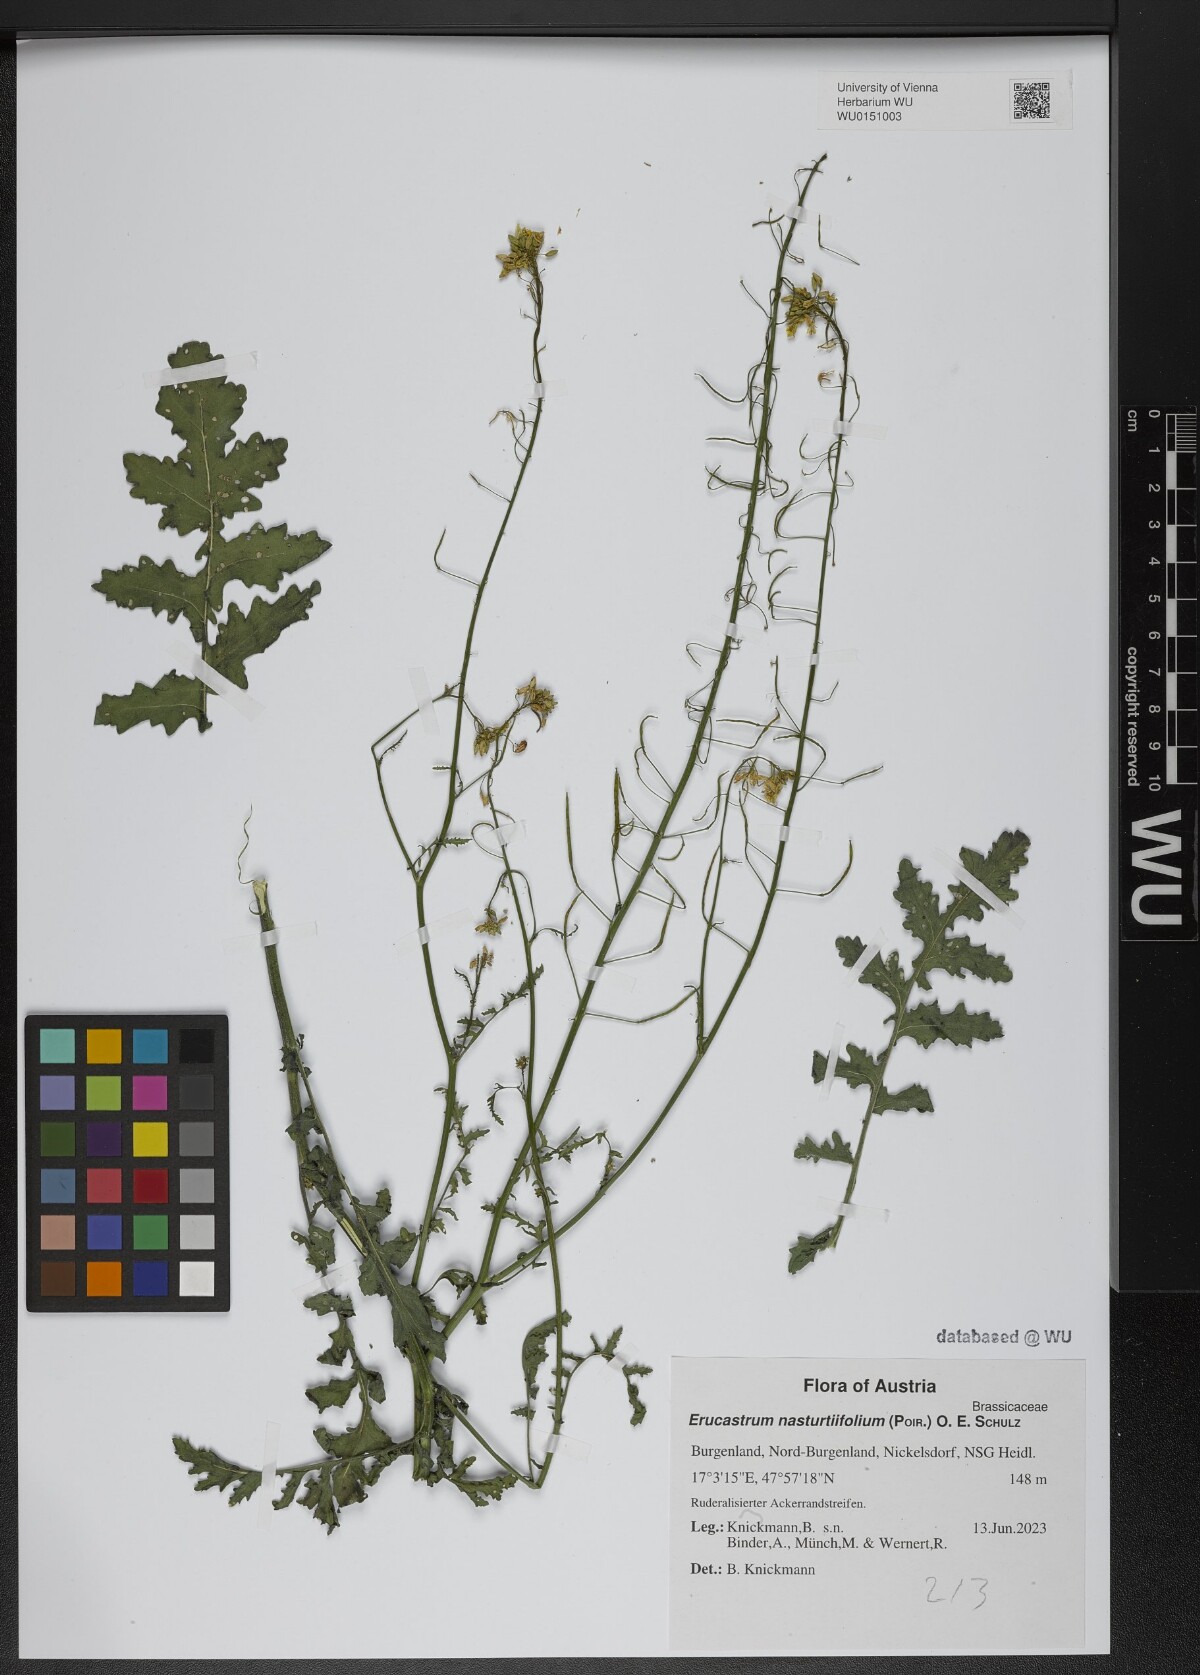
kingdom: Plantae
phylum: Tracheophyta
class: Magnoliopsida
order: Brassicales
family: Brassicaceae
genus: Erucastrum
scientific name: Erucastrum nasturtiifolium
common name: Watercress-leaf rocket
